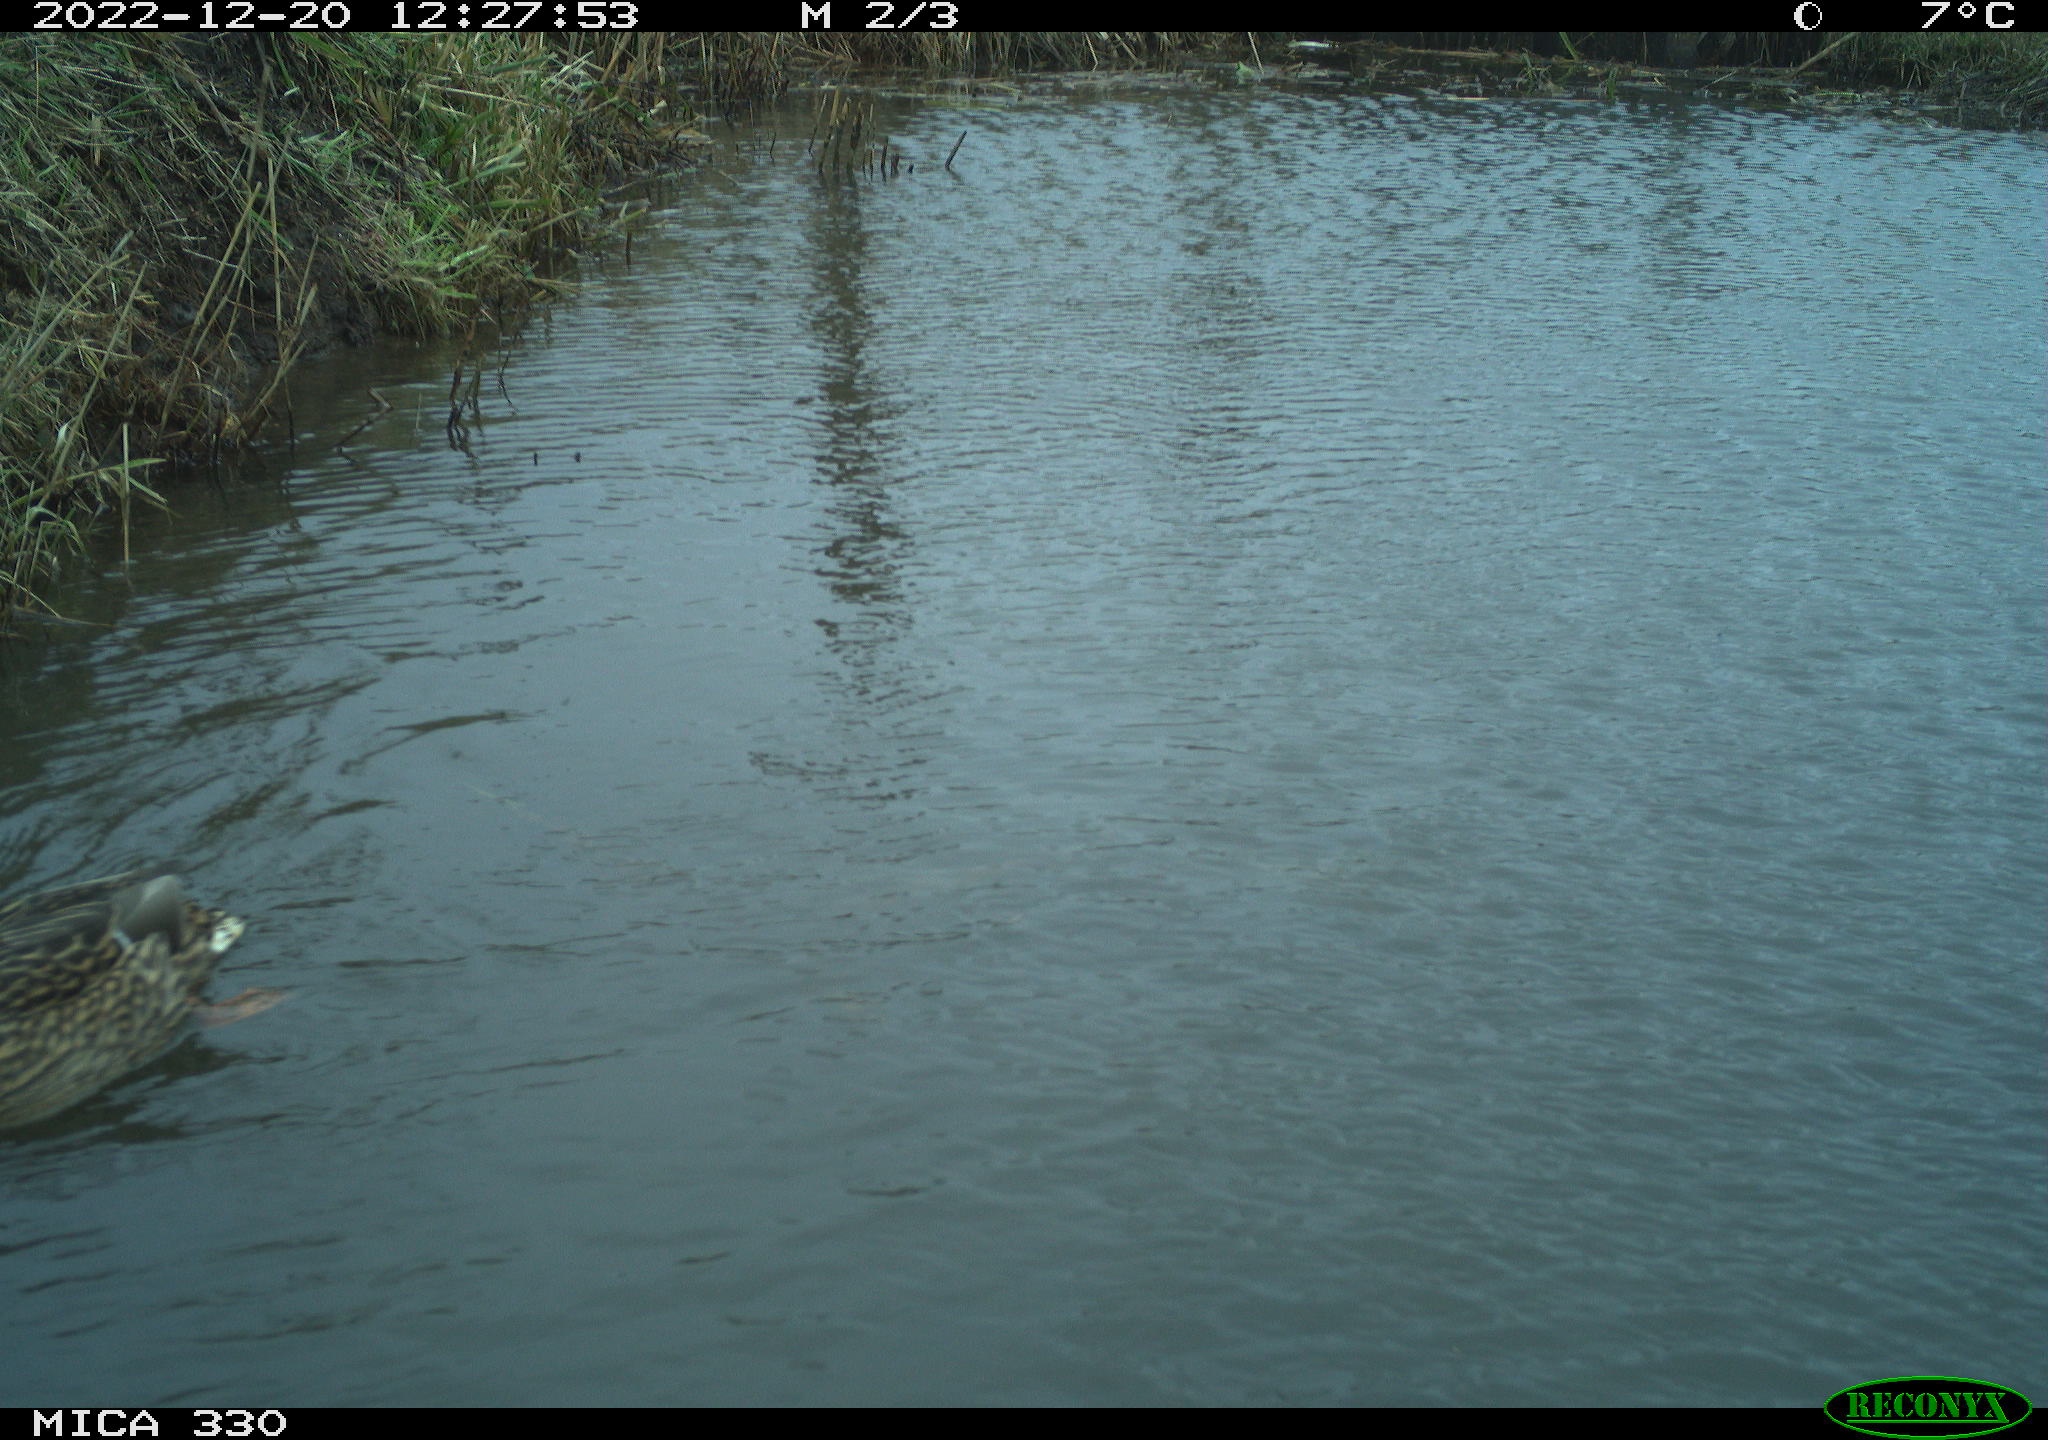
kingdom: Animalia
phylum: Chordata
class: Aves
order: Anseriformes
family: Anatidae
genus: Anas
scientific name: Anas
